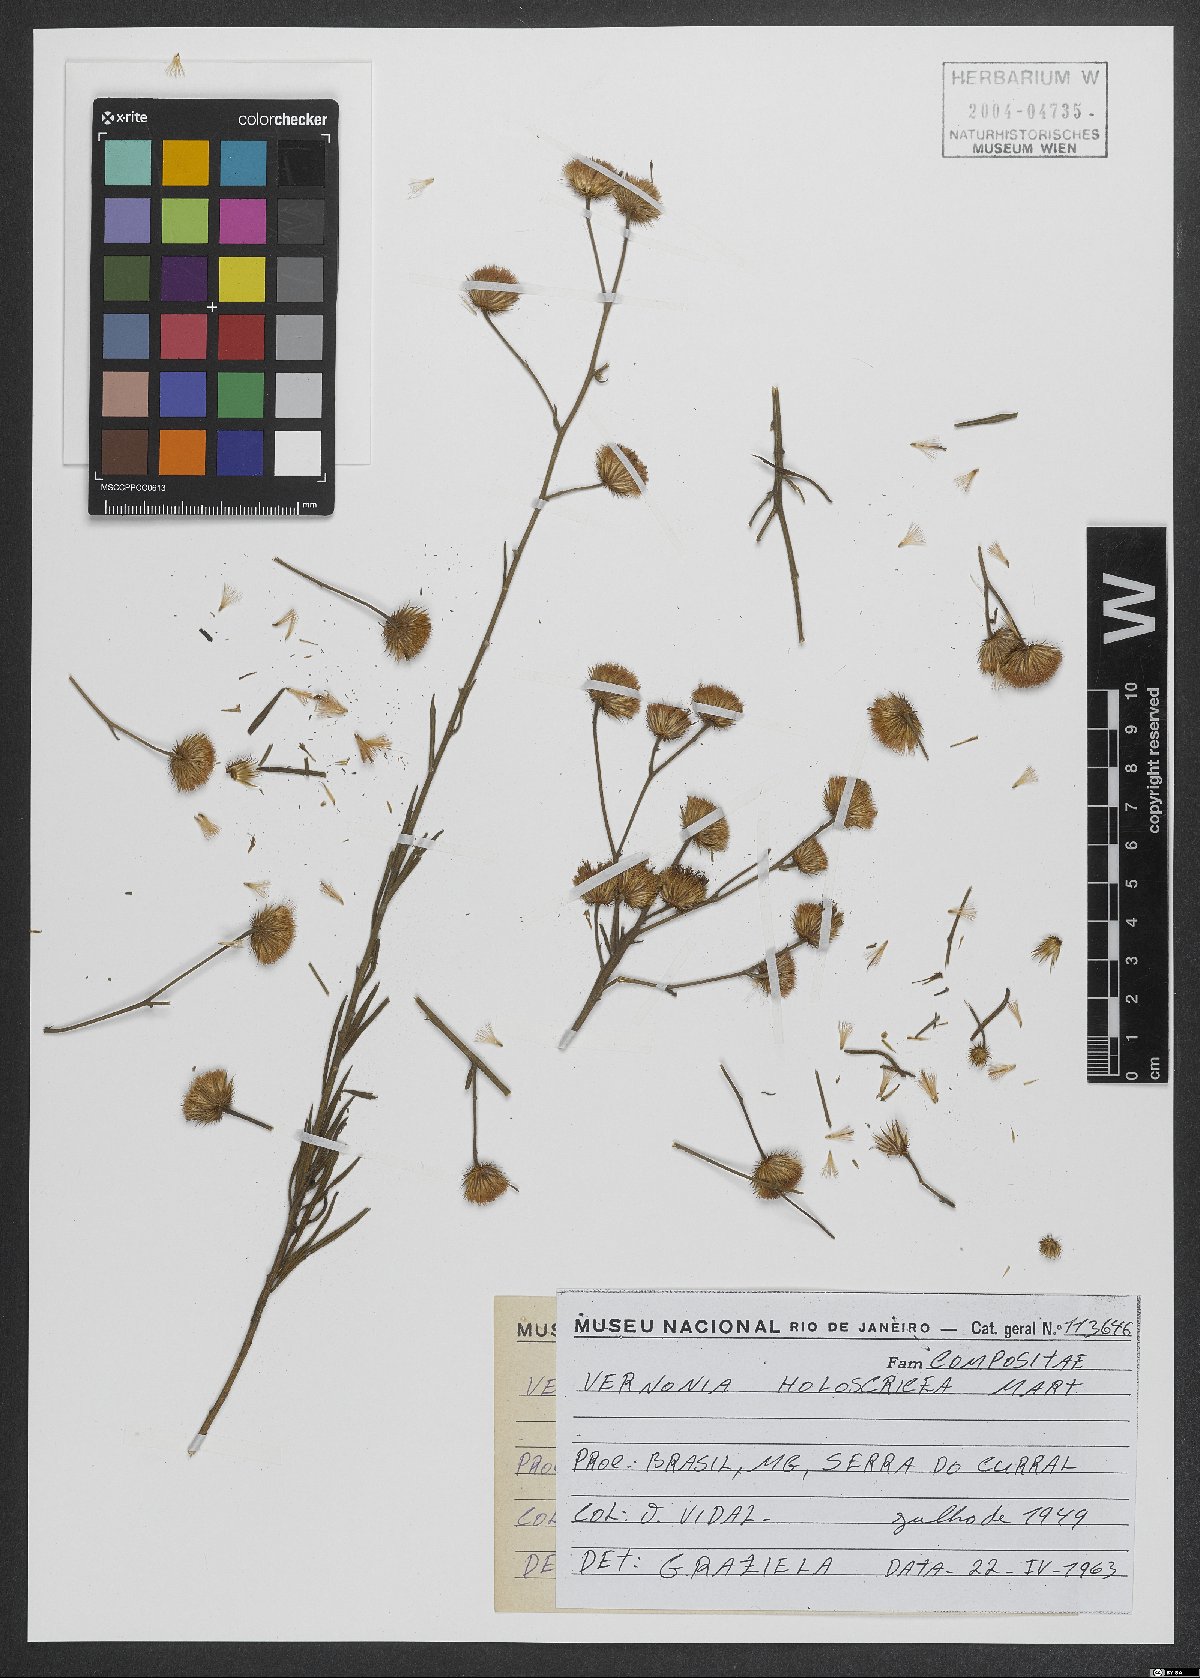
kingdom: Plantae
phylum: Tracheophyta
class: Magnoliopsida
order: Asterales
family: Asteraceae
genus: Echinocoryne
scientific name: Echinocoryne holosericea
